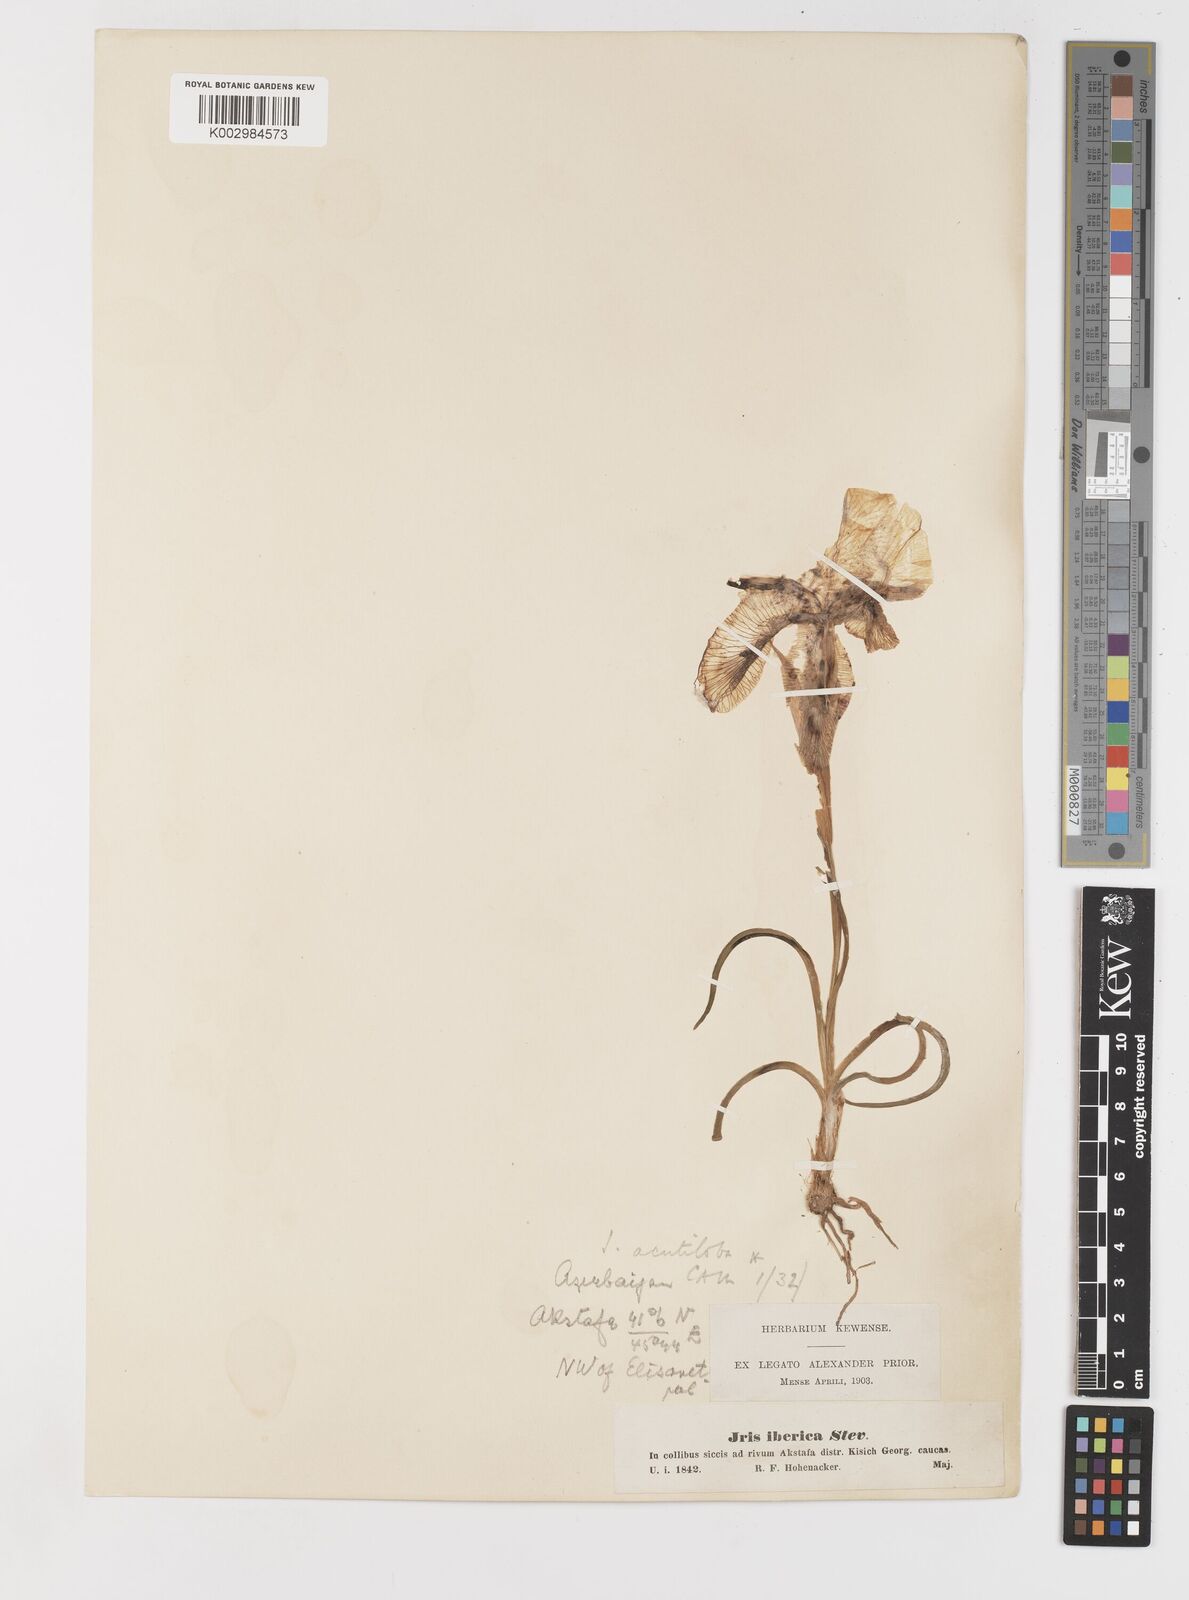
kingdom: Plantae
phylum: Tracheophyta
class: Liliopsida
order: Asparagales
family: Iridaceae
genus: Iris
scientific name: Iris iberica
